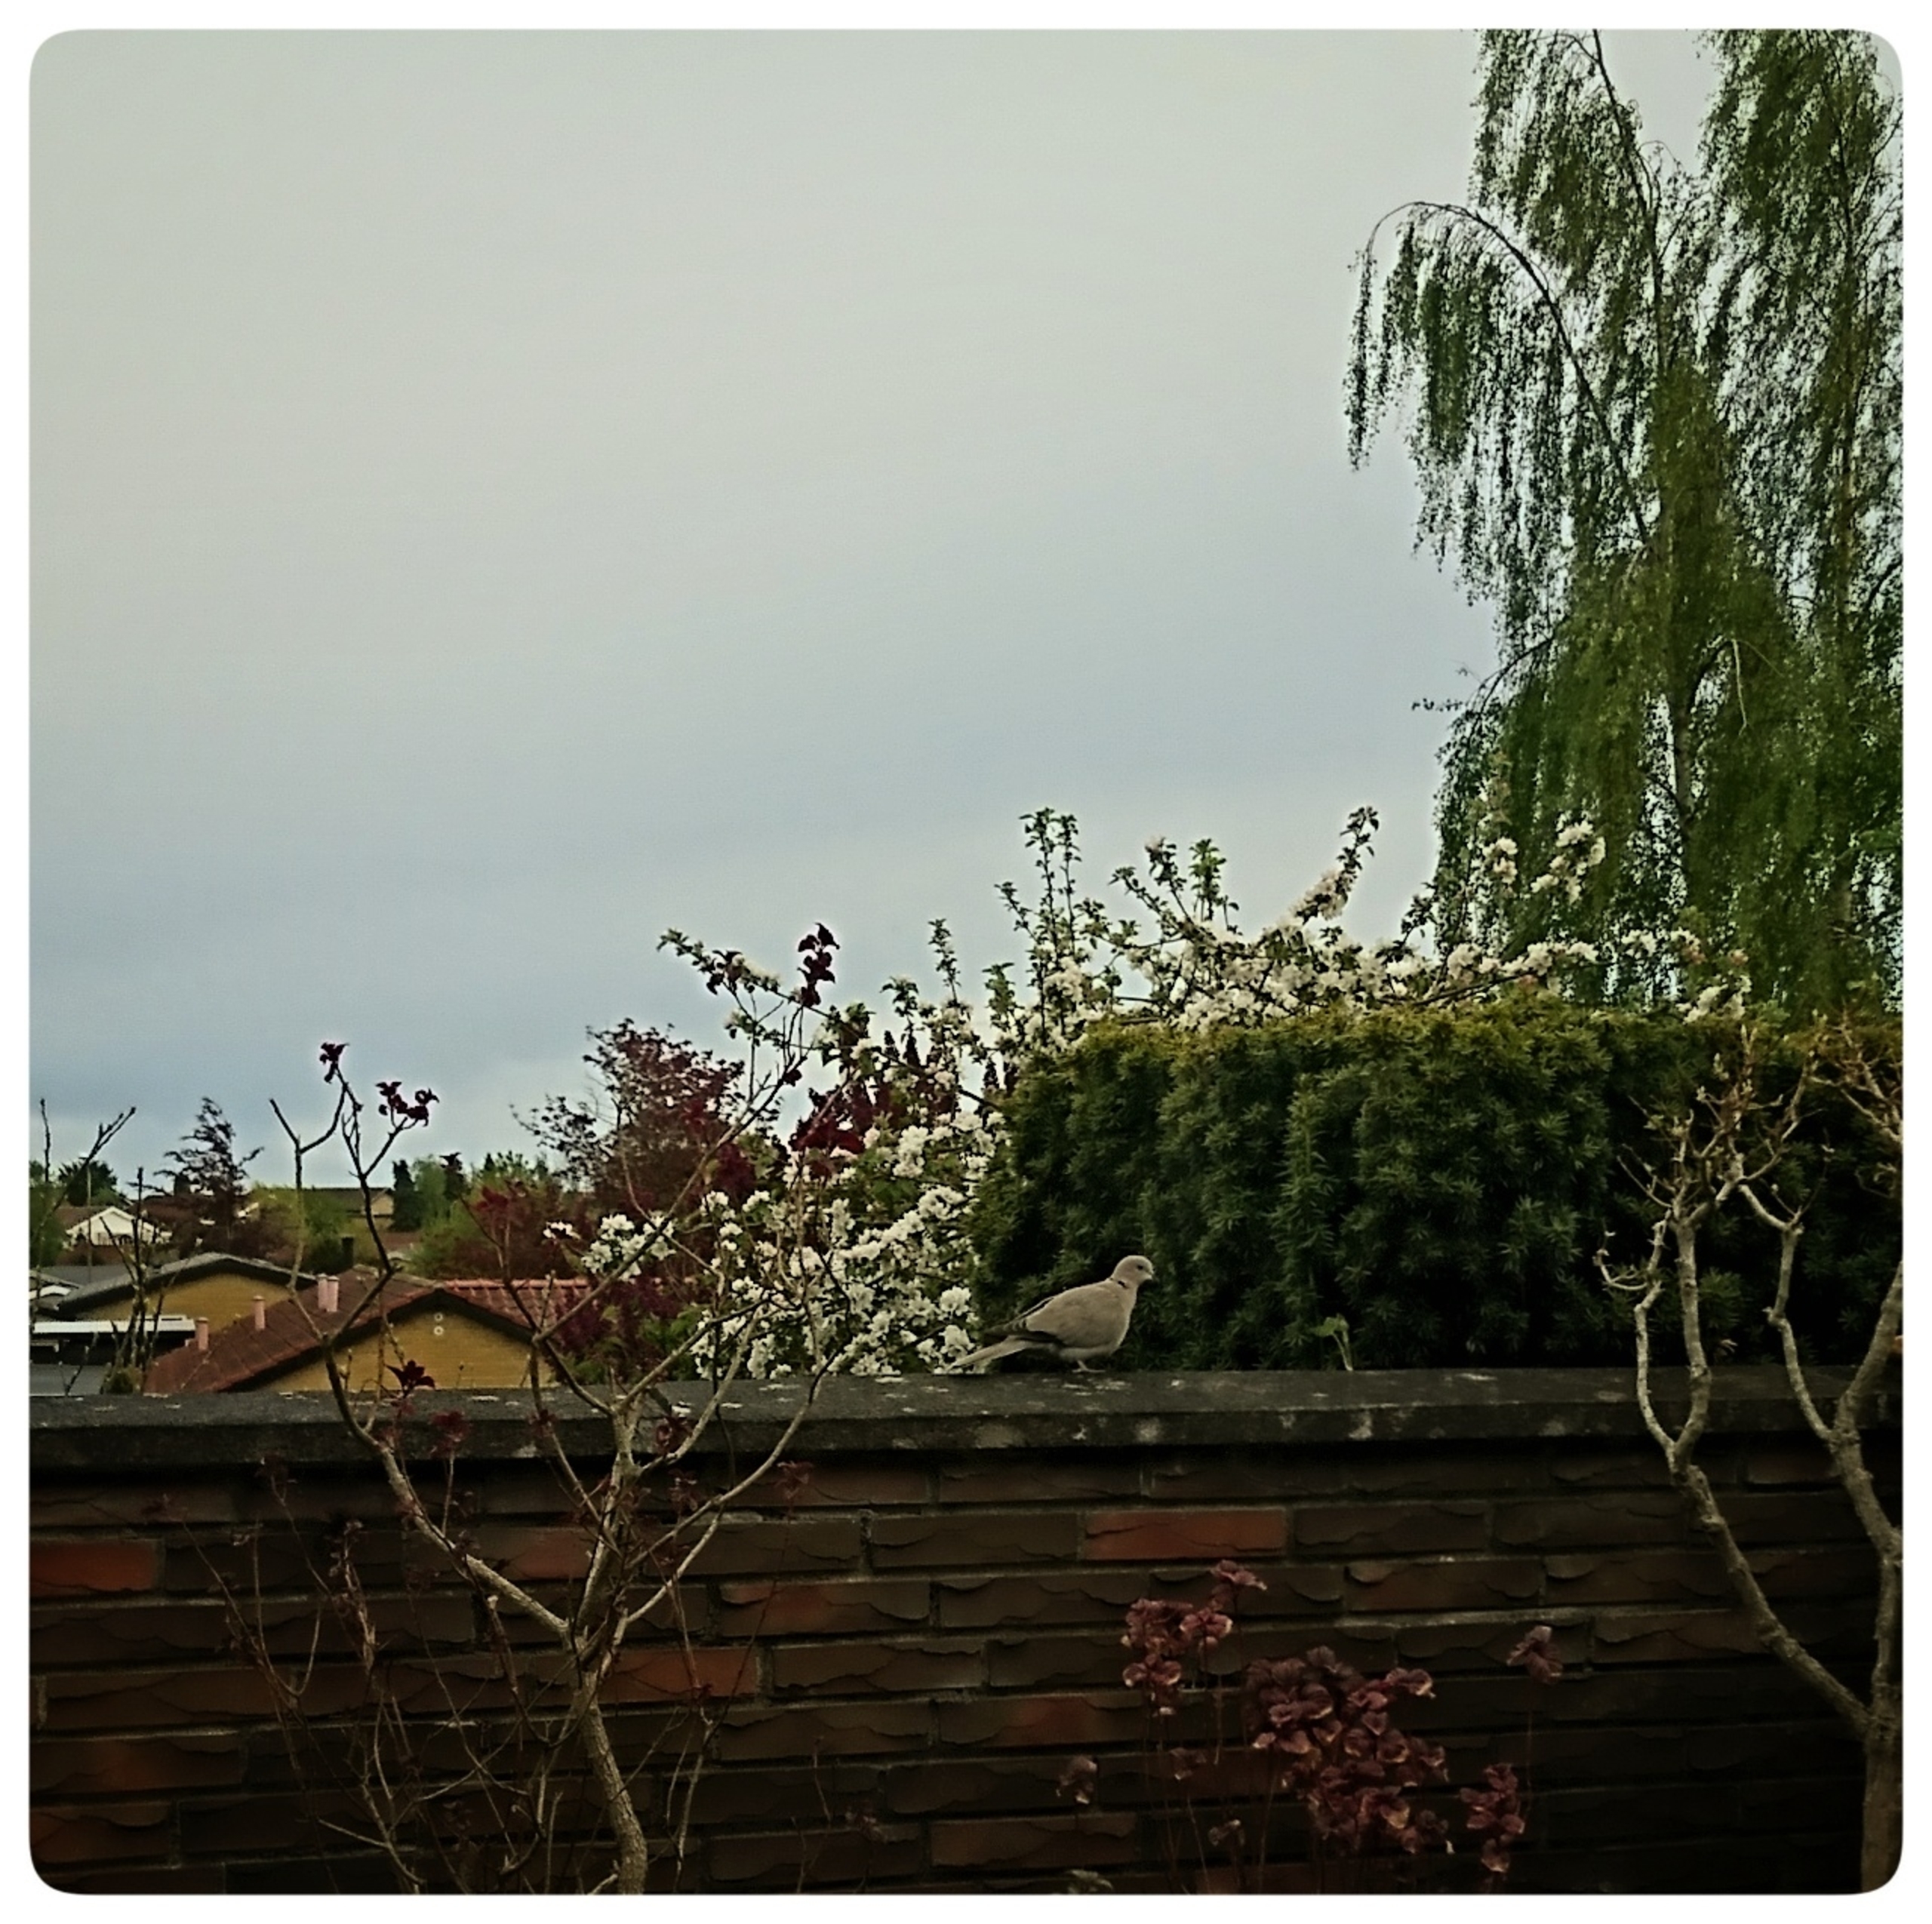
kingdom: Animalia
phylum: Chordata
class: Aves
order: Columbiformes
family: Columbidae
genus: Streptopelia
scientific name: Streptopelia decaocto
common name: Tyrkerdue
